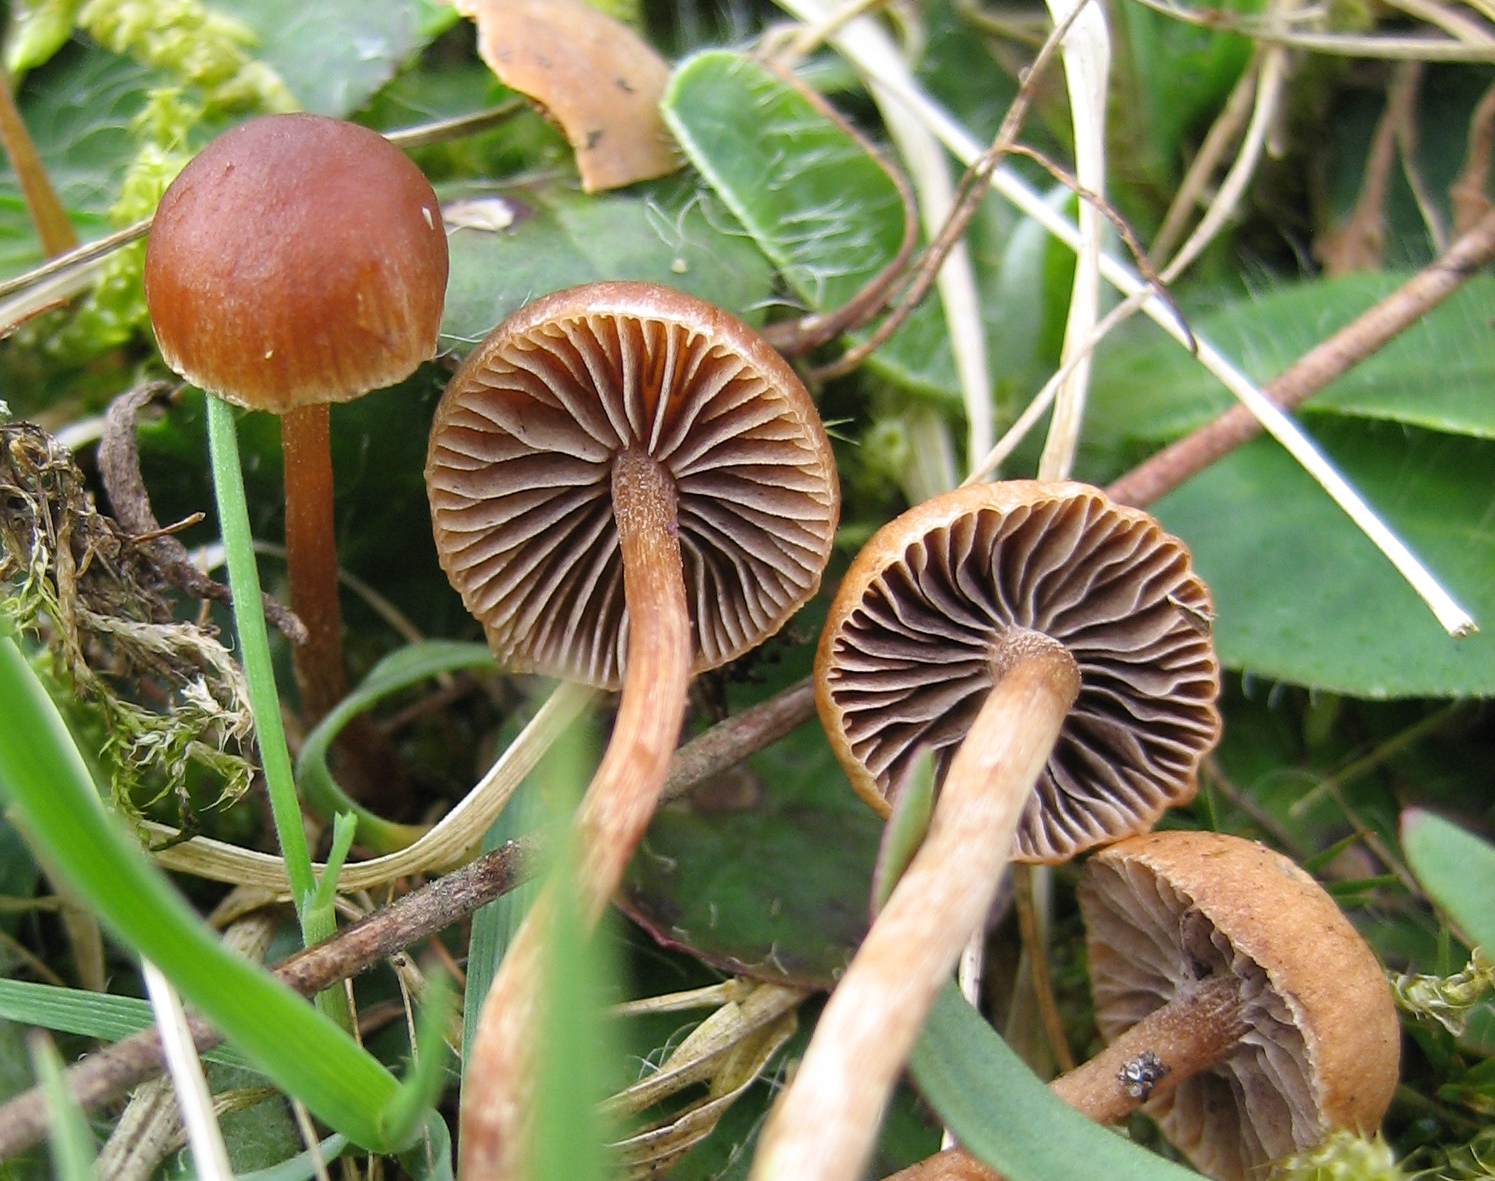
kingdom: Fungi
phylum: Basidiomycota
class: Agaricomycetes
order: Agaricales
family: Strophariaceae
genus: Deconica
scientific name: Deconica
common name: stråhat
